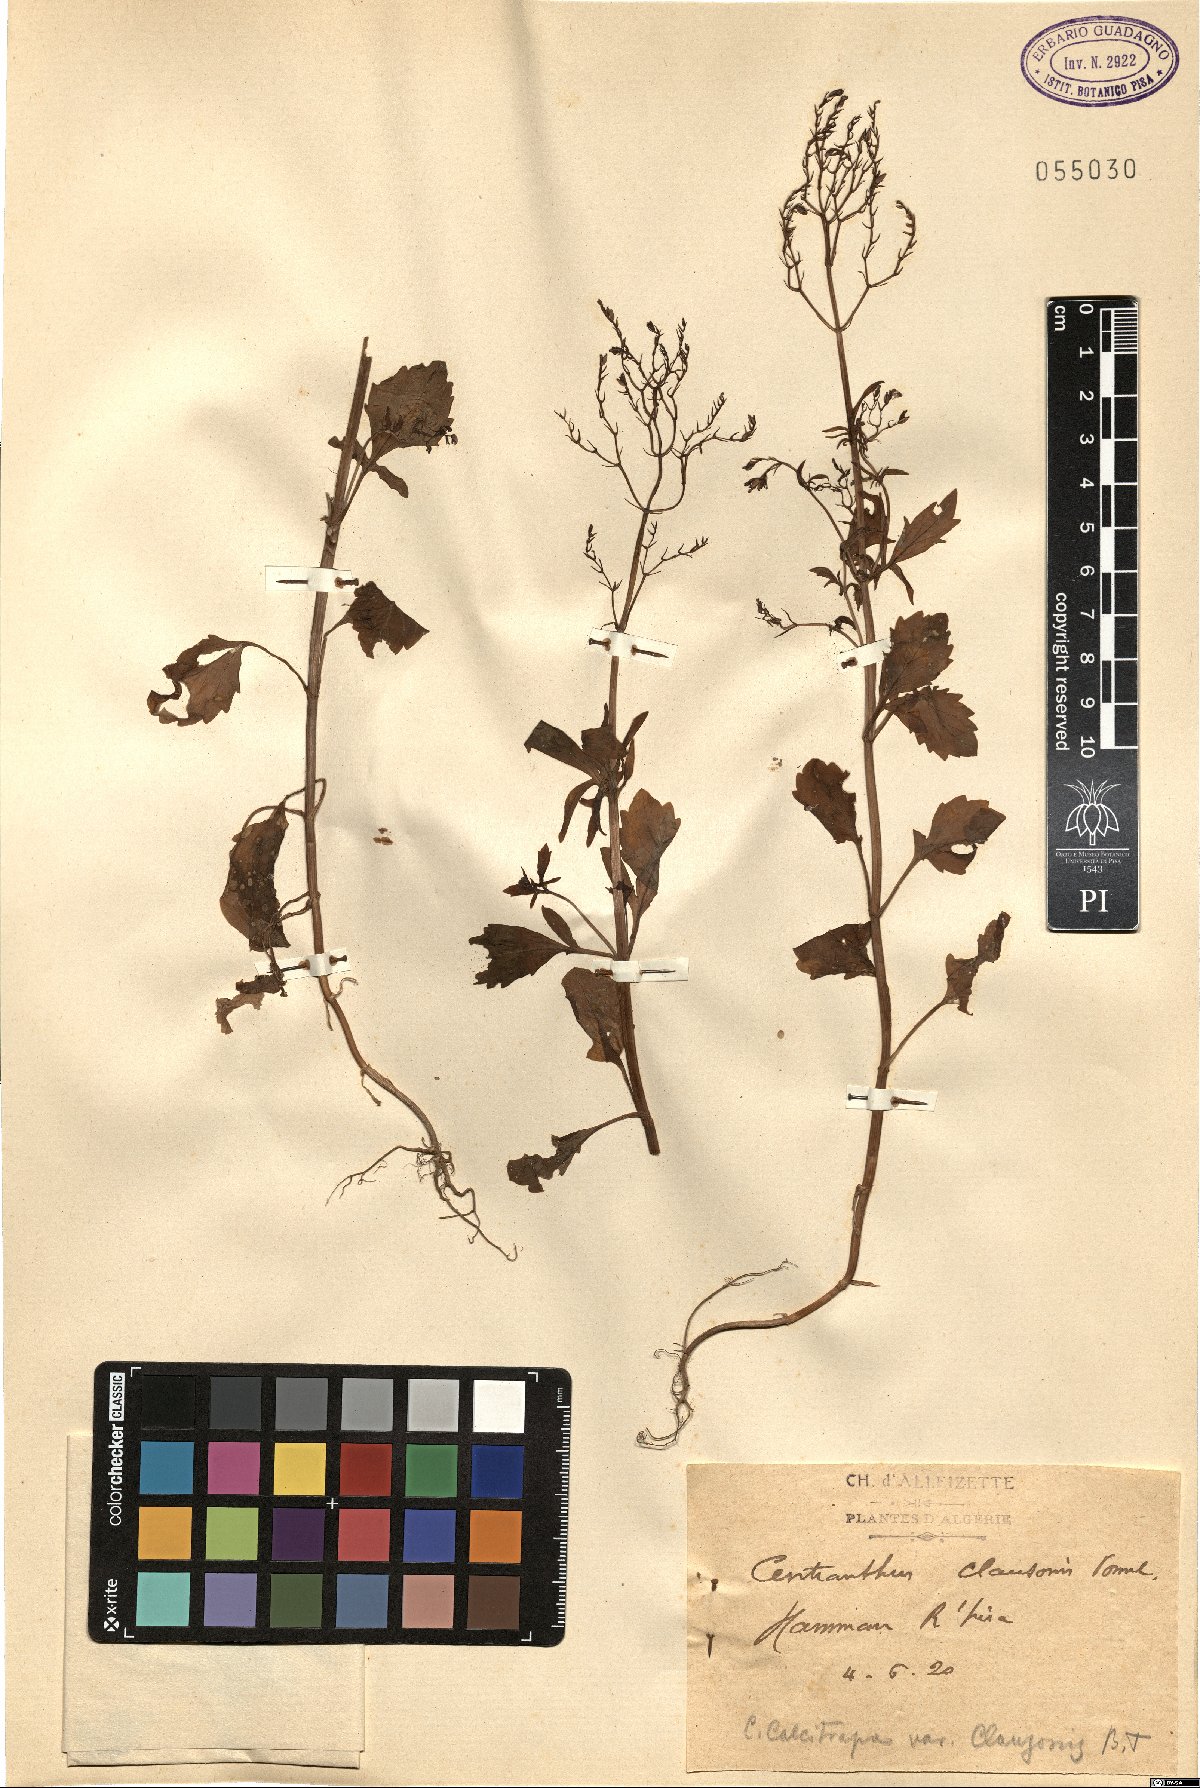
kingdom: Plantae
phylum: Tracheophyta
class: Magnoliopsida
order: Dipsacales
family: Caprifoliaceae
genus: Centranthus
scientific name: Centranthus calcitrapae
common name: Annual valerian
